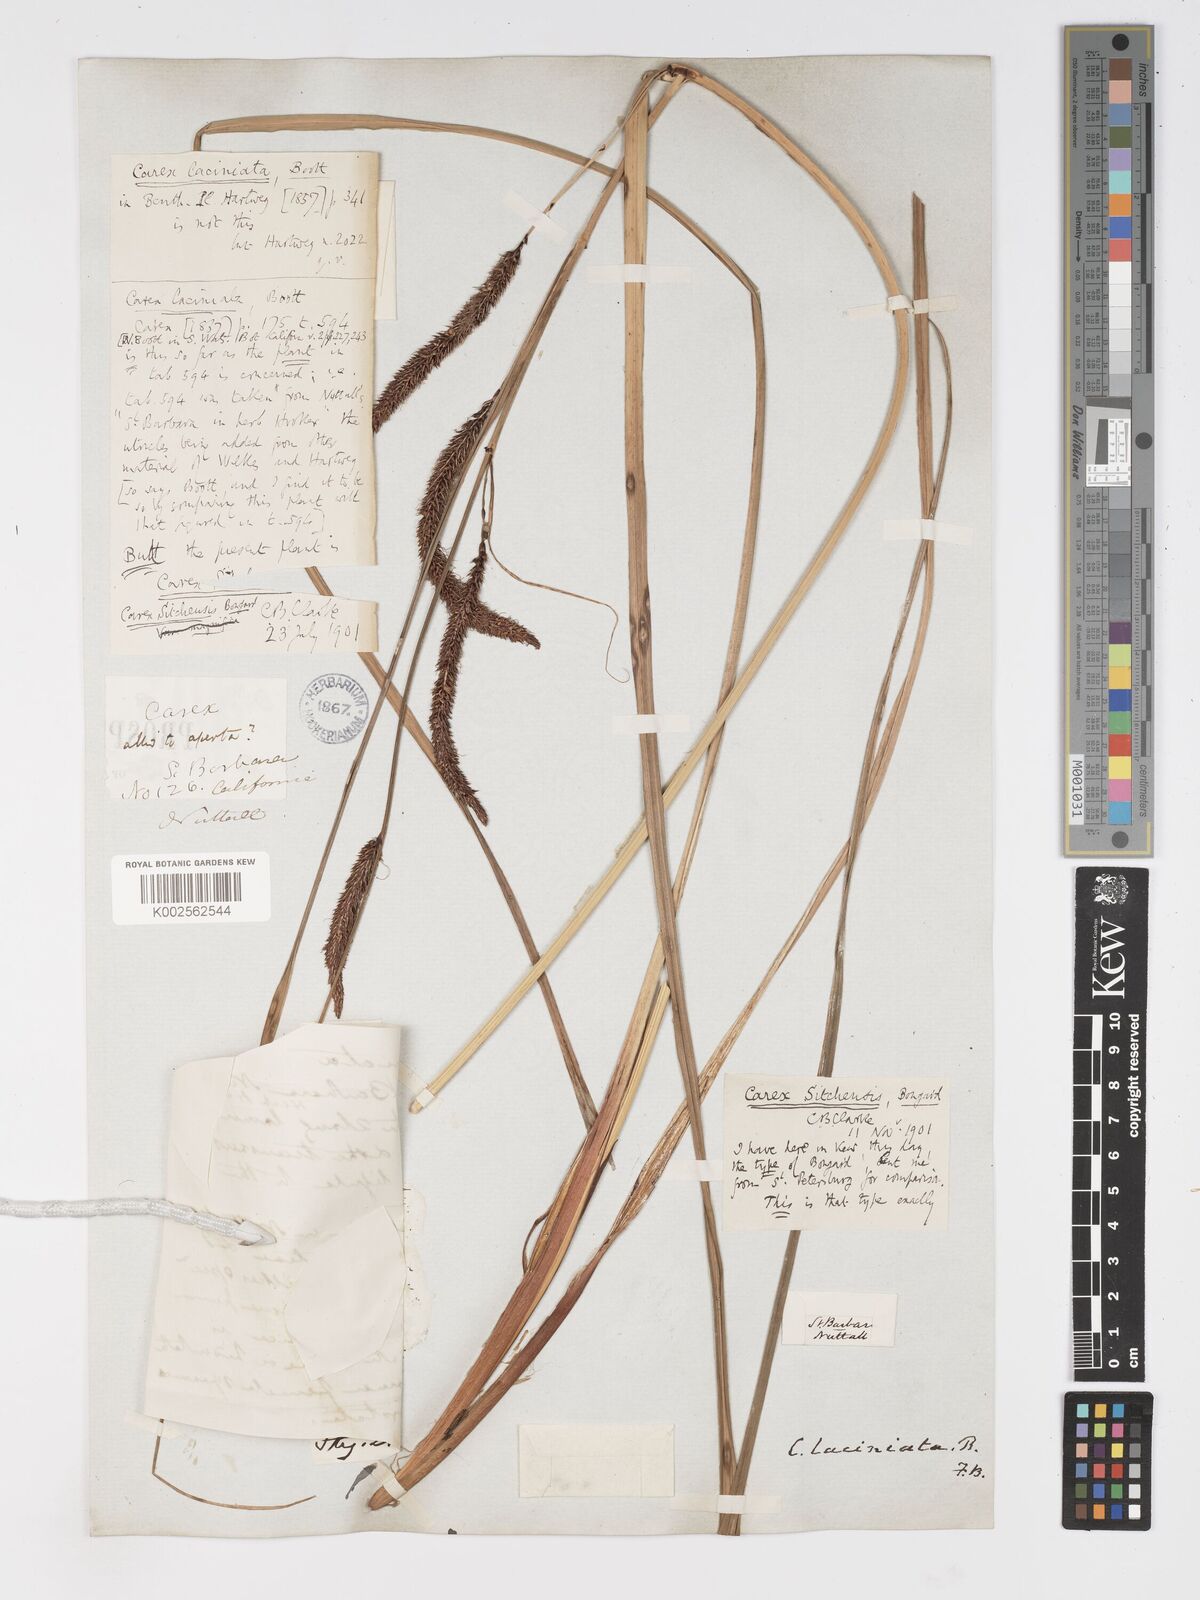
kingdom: Plantae
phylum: Tracheophyta
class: Liliopsida
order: Poales
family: Cyperaceae
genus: Carex
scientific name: Carex schottii
